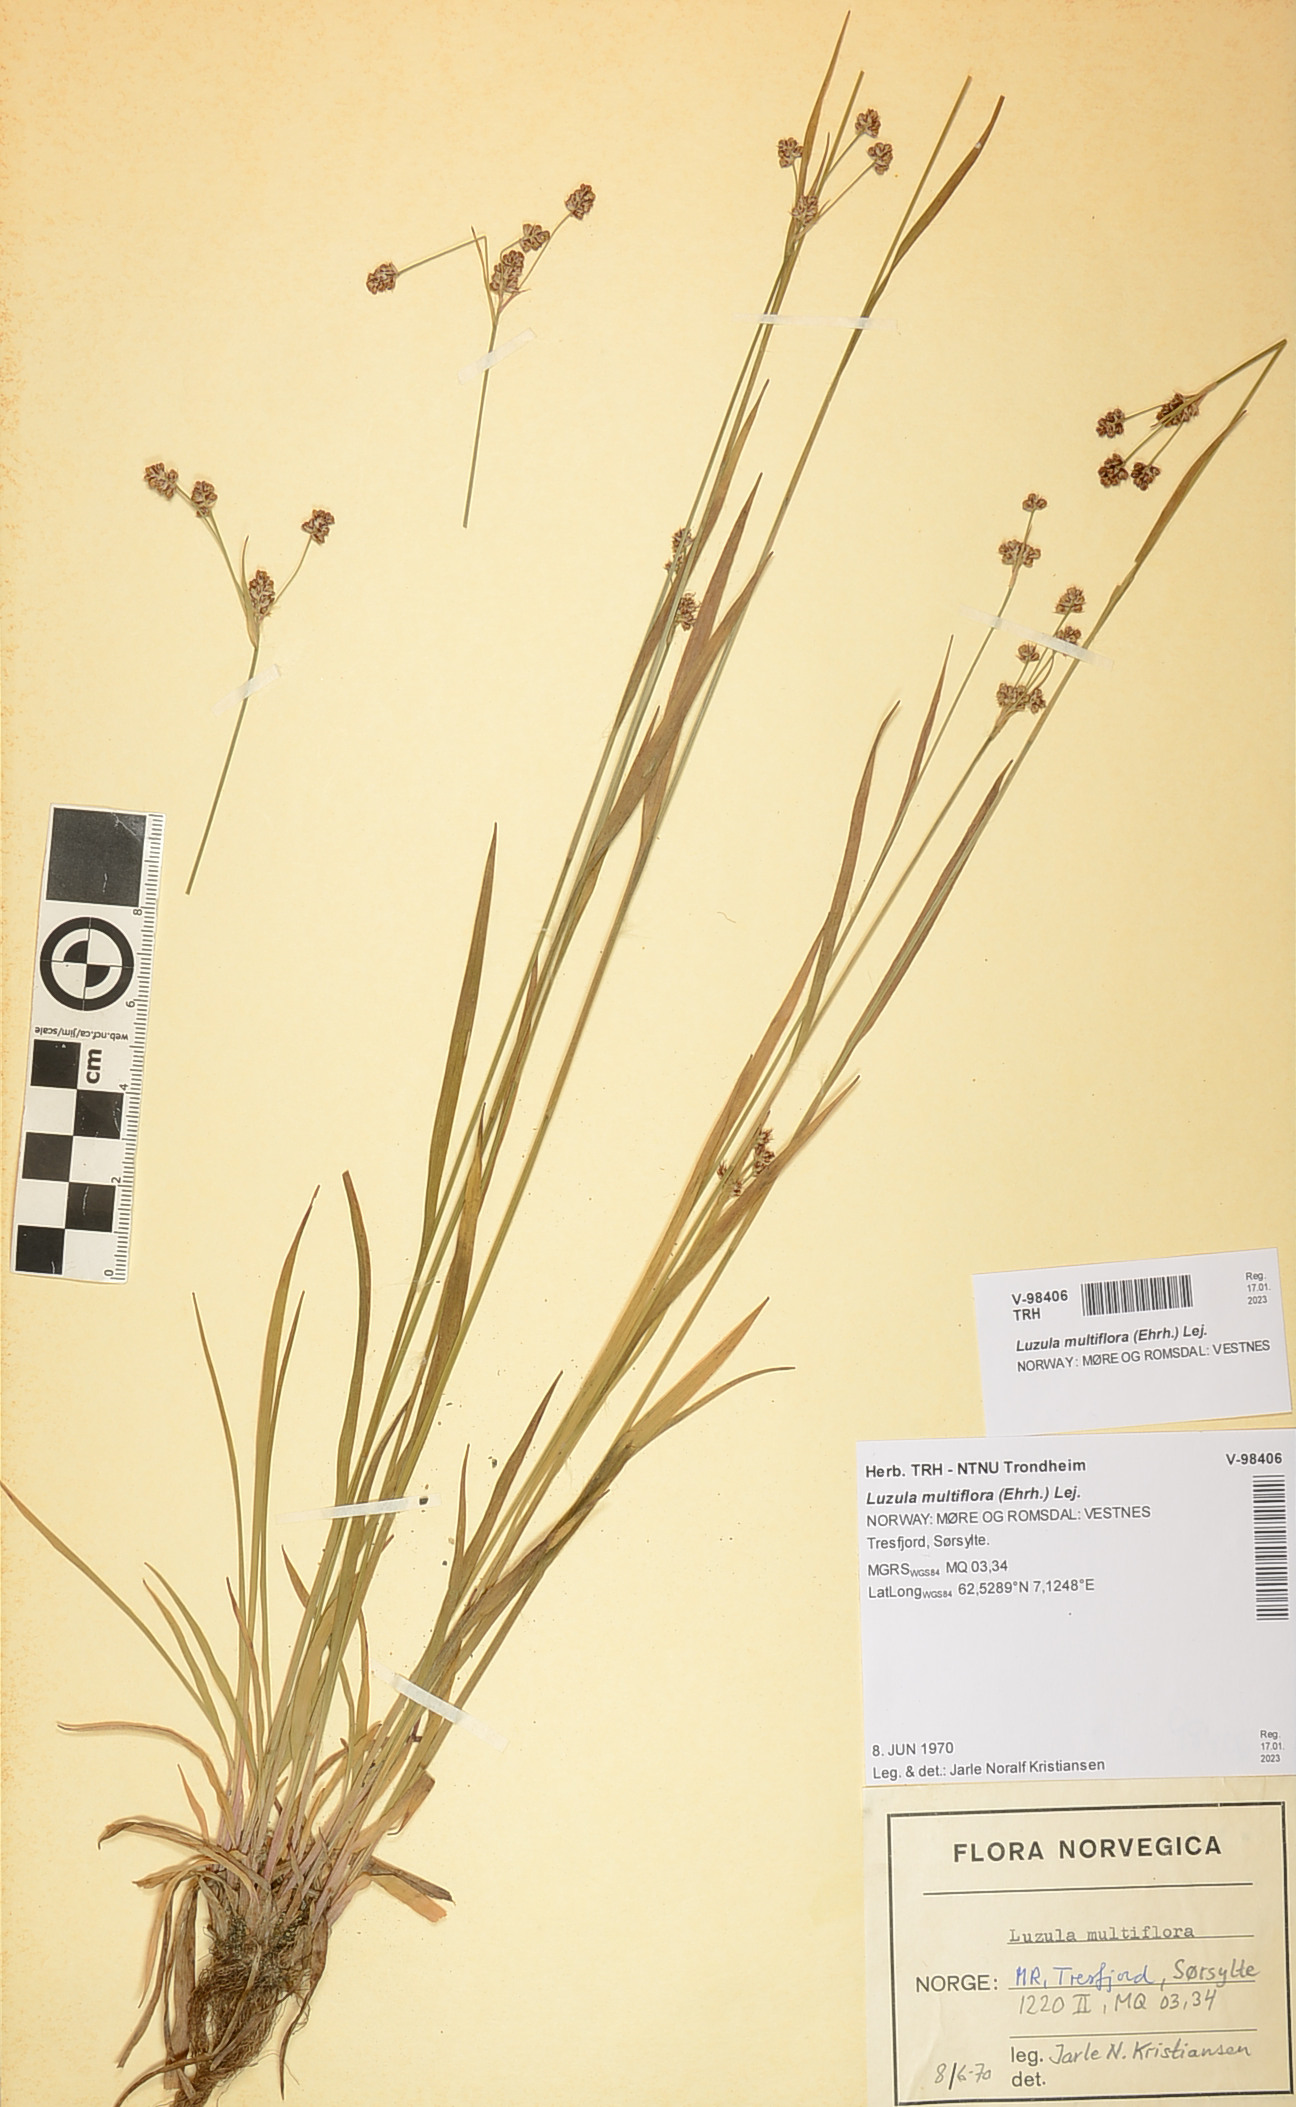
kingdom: Plantae
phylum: Tracheophyta
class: Liliopsida
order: Poales
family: Juncaceae
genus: Luzula
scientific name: Luzula multiflora
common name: Heath wood-rush
